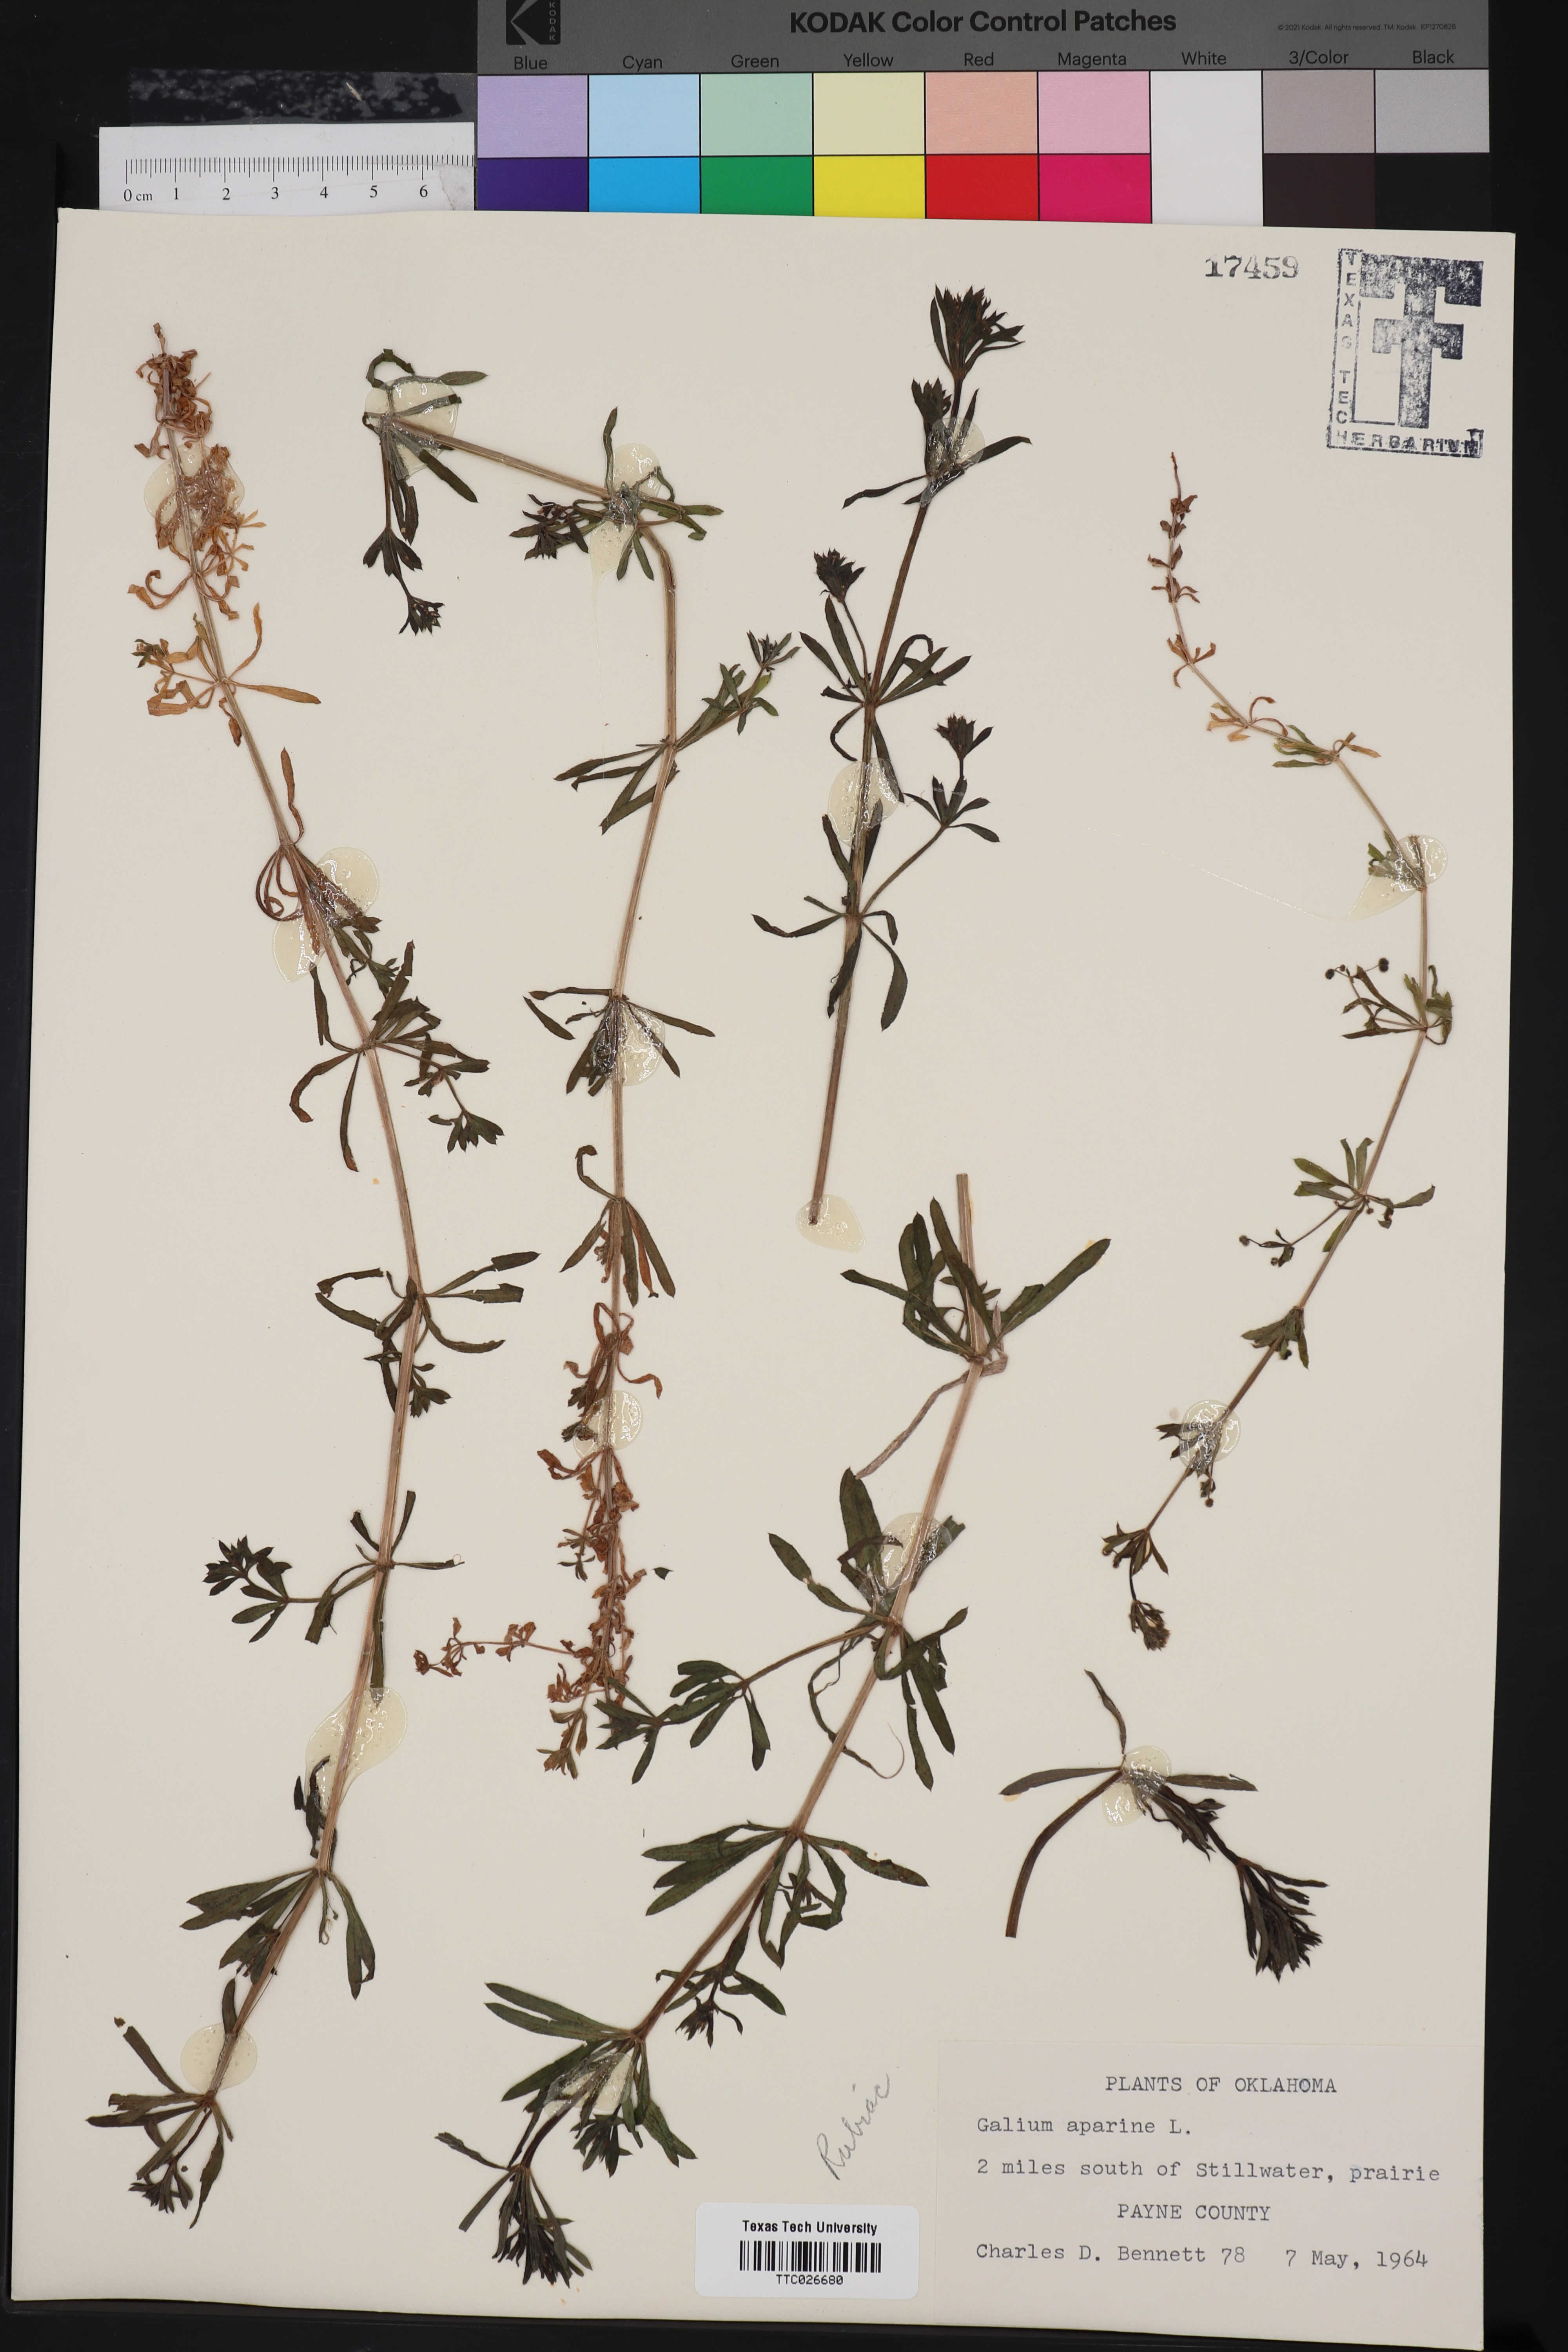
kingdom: Plantae
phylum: Tracheophyta
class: Magnoliopsida
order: Gentianales
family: Rubiaceae
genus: Galium
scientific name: Galium aparine
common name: Cleavers
